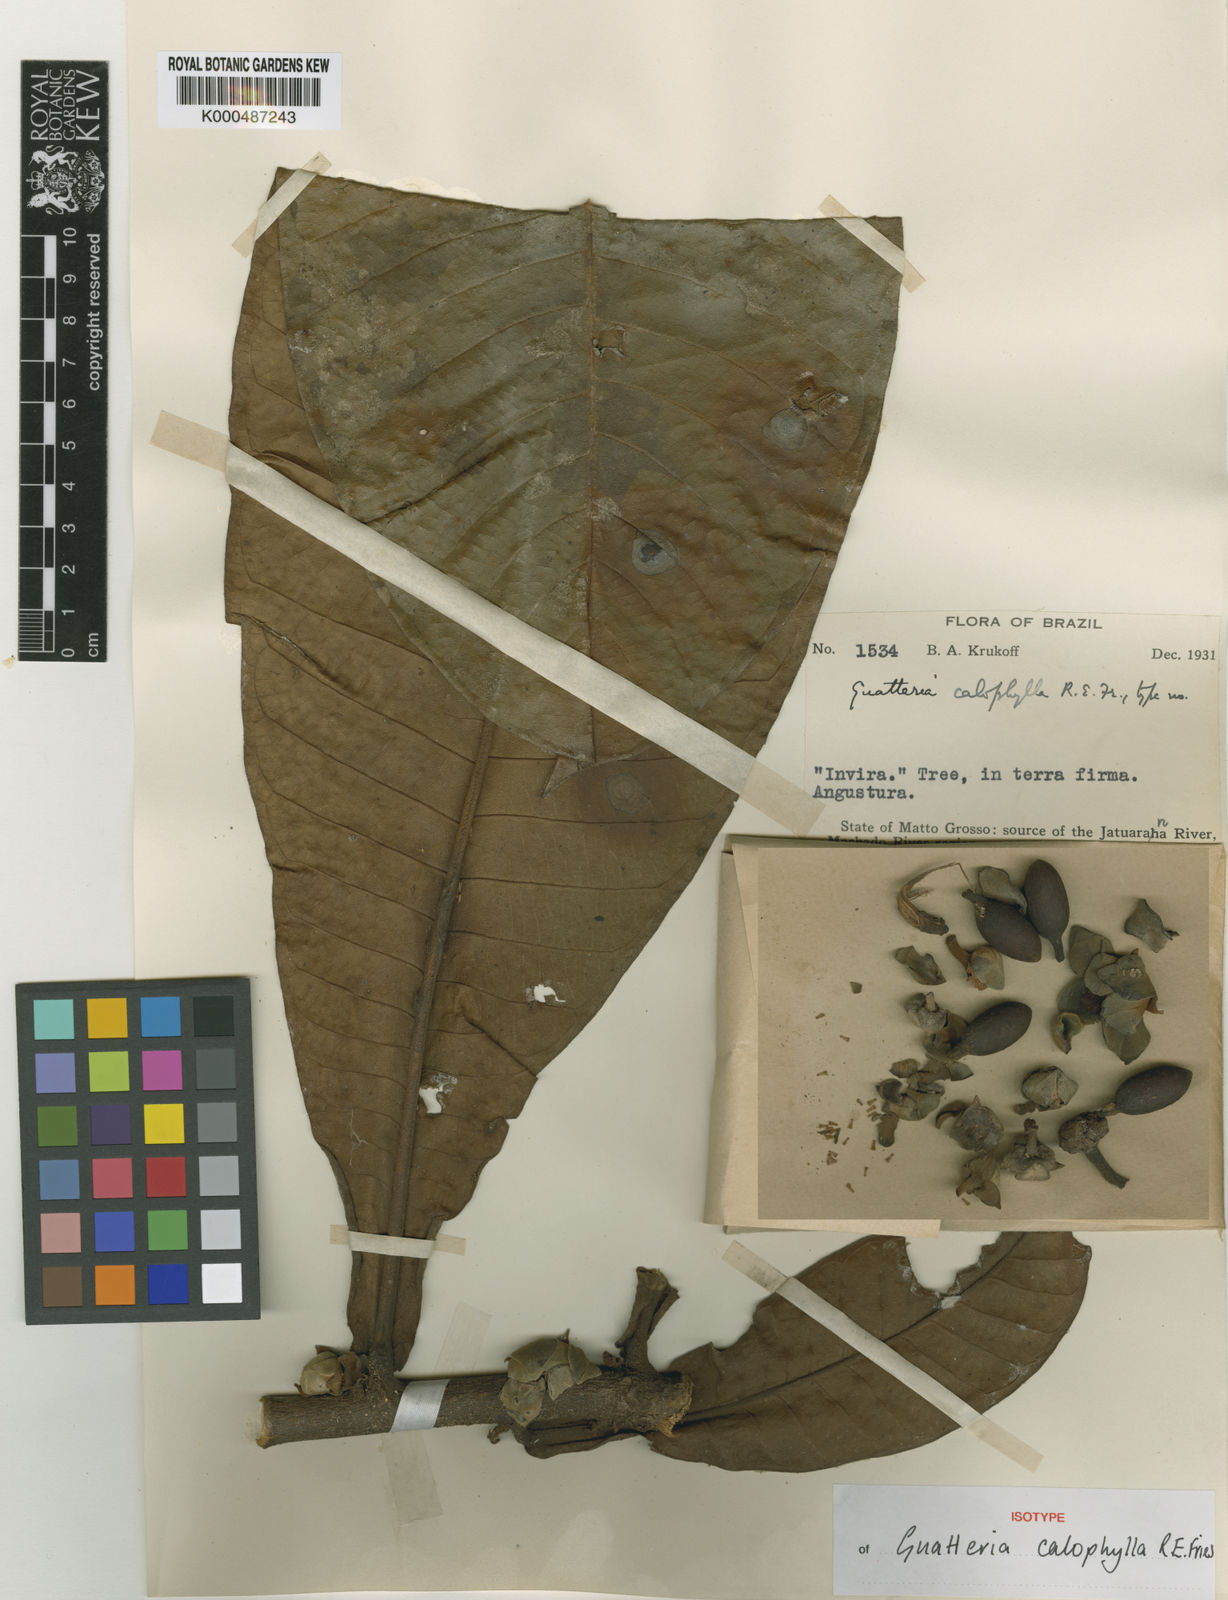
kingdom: Plantae
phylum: Tracheophyta
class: Magnoliopsida
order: Magnoliales
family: Annonaceae
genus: Guatteria
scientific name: Guatteria guianensis
